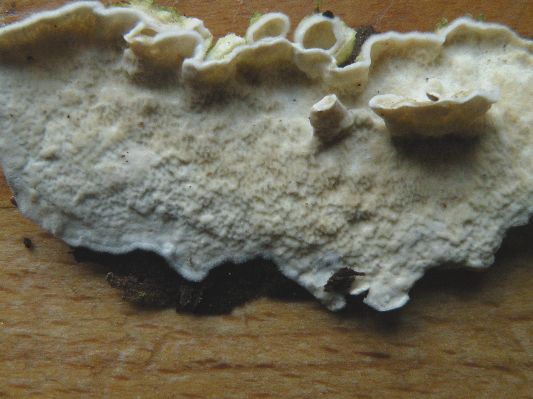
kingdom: Fungi
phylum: Basidiomycota
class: Agaricomycetes
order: Polyporales
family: Irpicaceae
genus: Byssomerulius
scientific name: Byssomerulius corium
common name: læder-åresvamp
